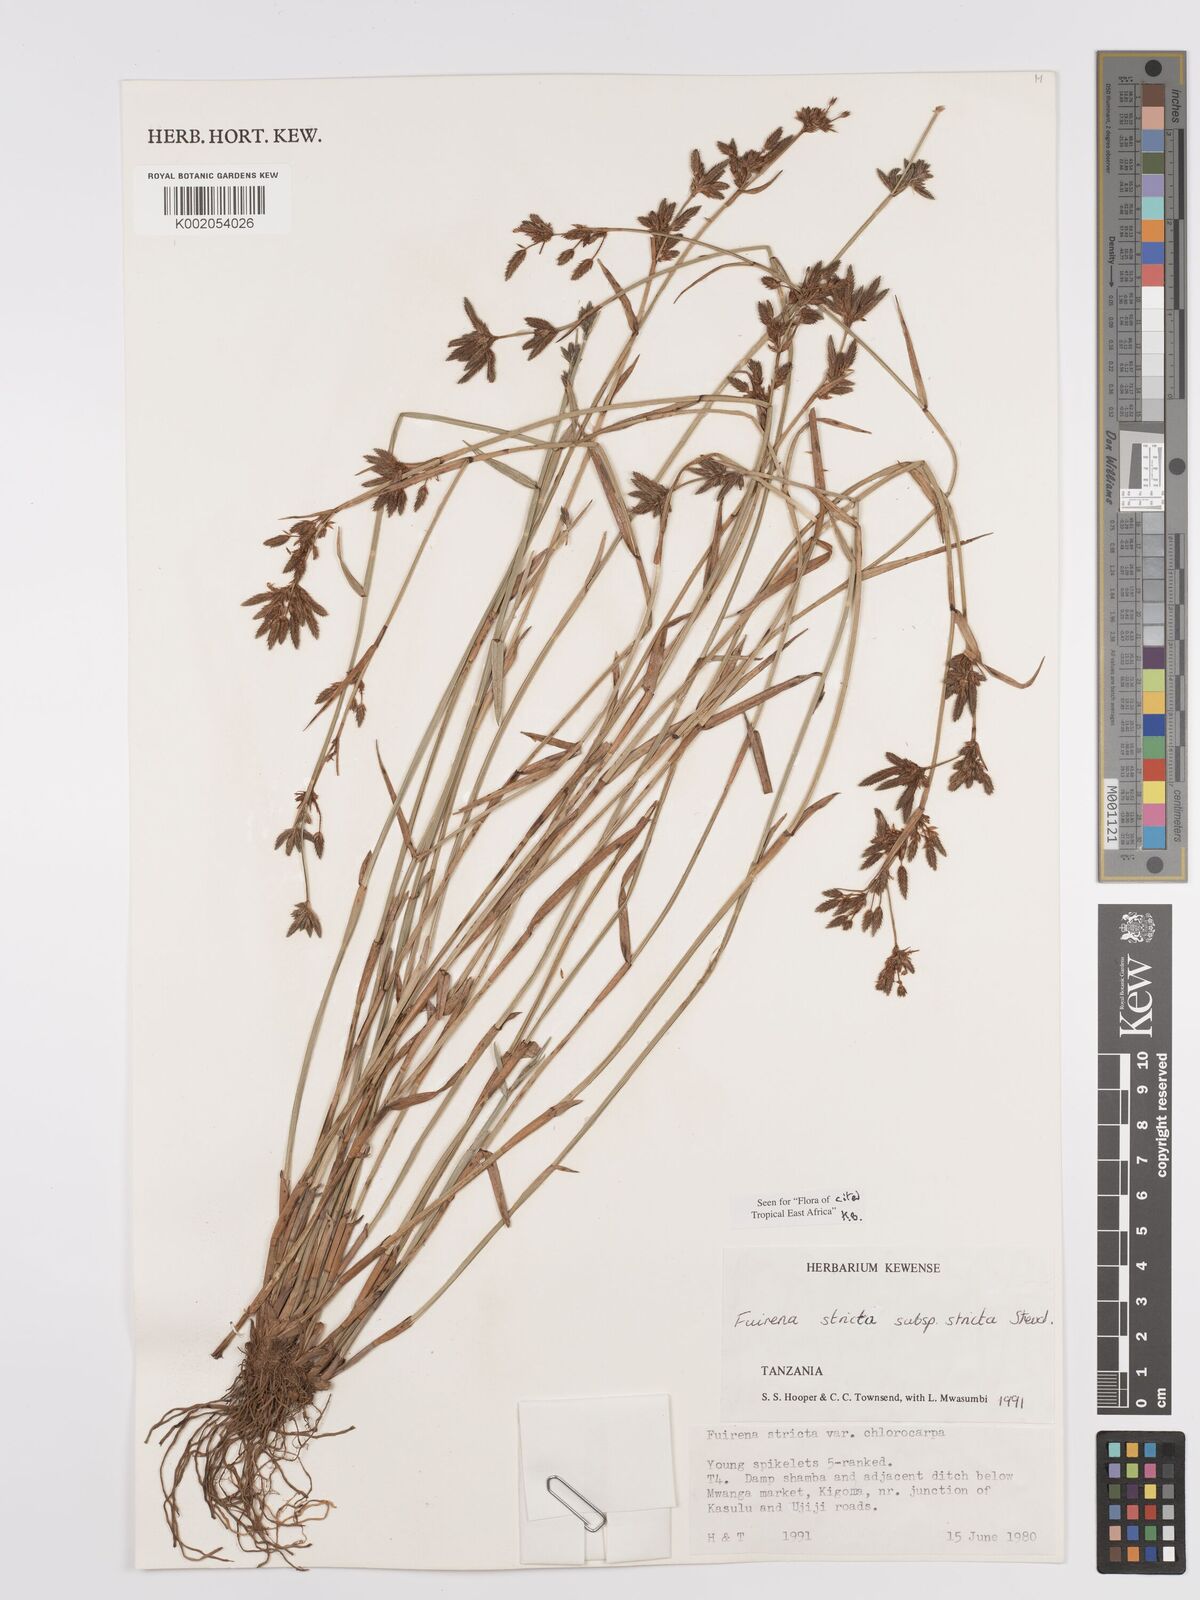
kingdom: Plantae
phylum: Tracheophyta
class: Liliopsida
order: Poales
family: Cyperaceae
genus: Fuirena
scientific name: Fuirena stricta
